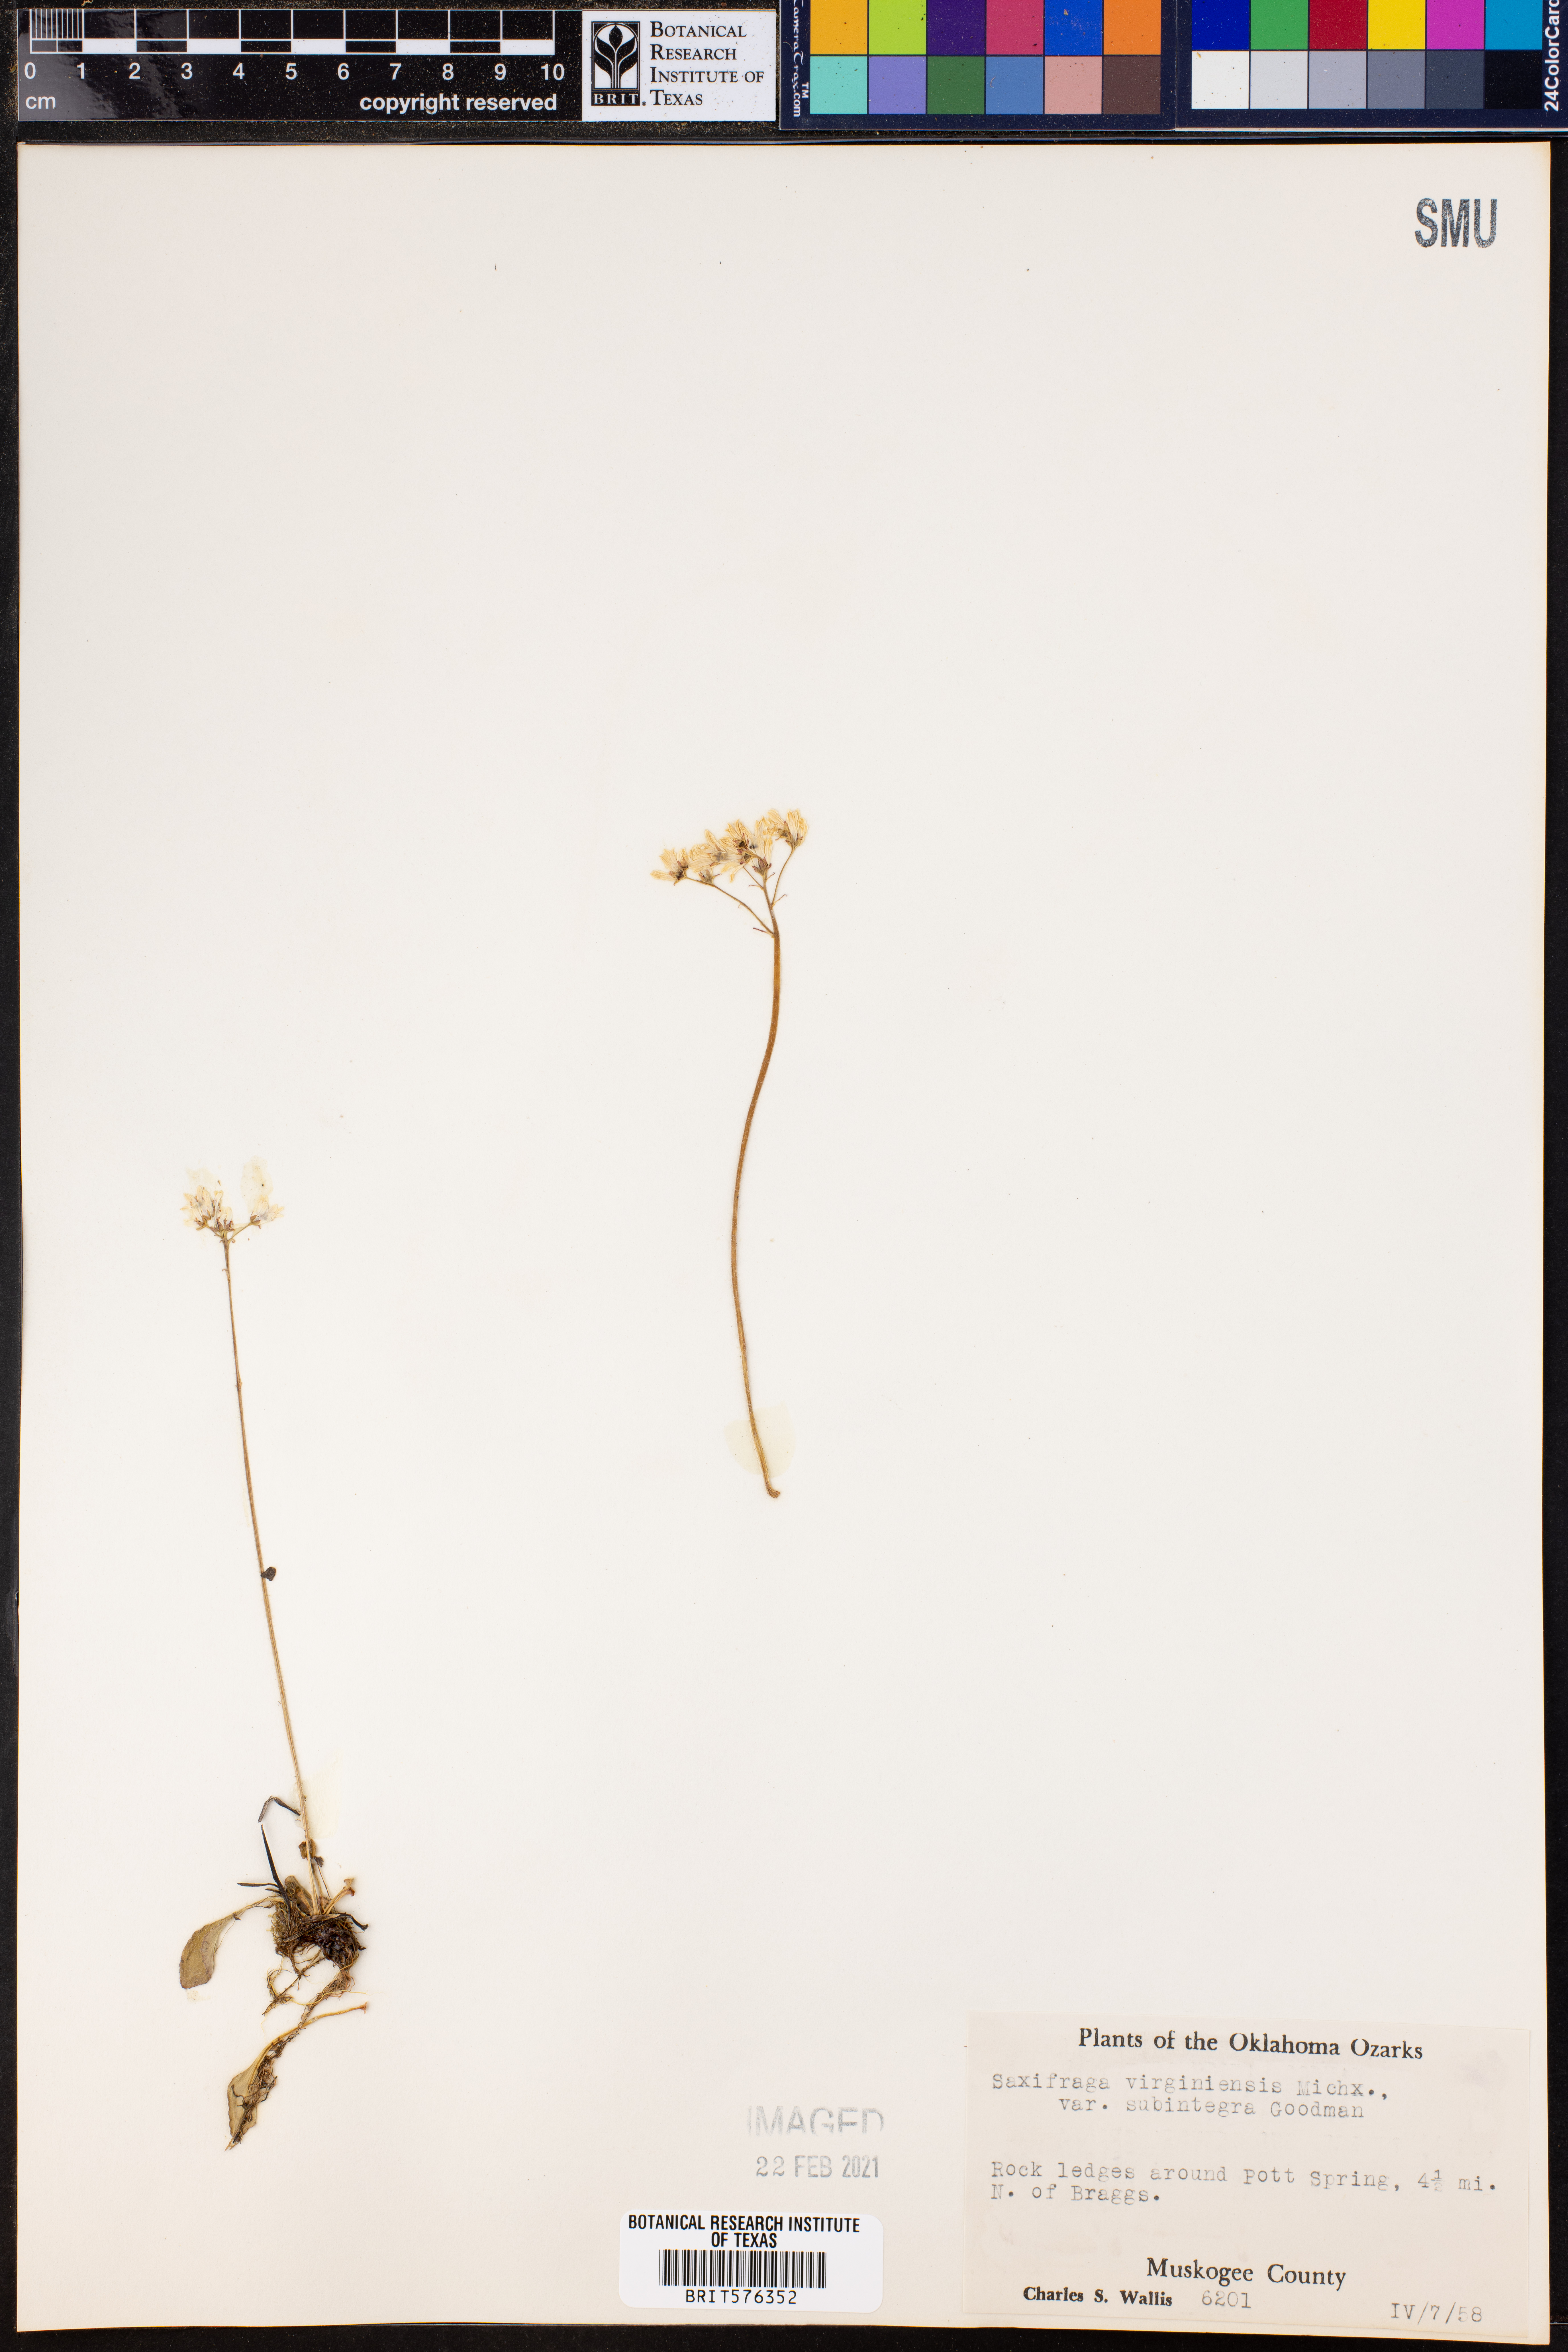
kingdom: Plantae
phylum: Tracheophyta
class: Magnoliopsida
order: Saxifragales
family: Saxifragaceae
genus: Micranthes
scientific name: Micranthes palmeri
